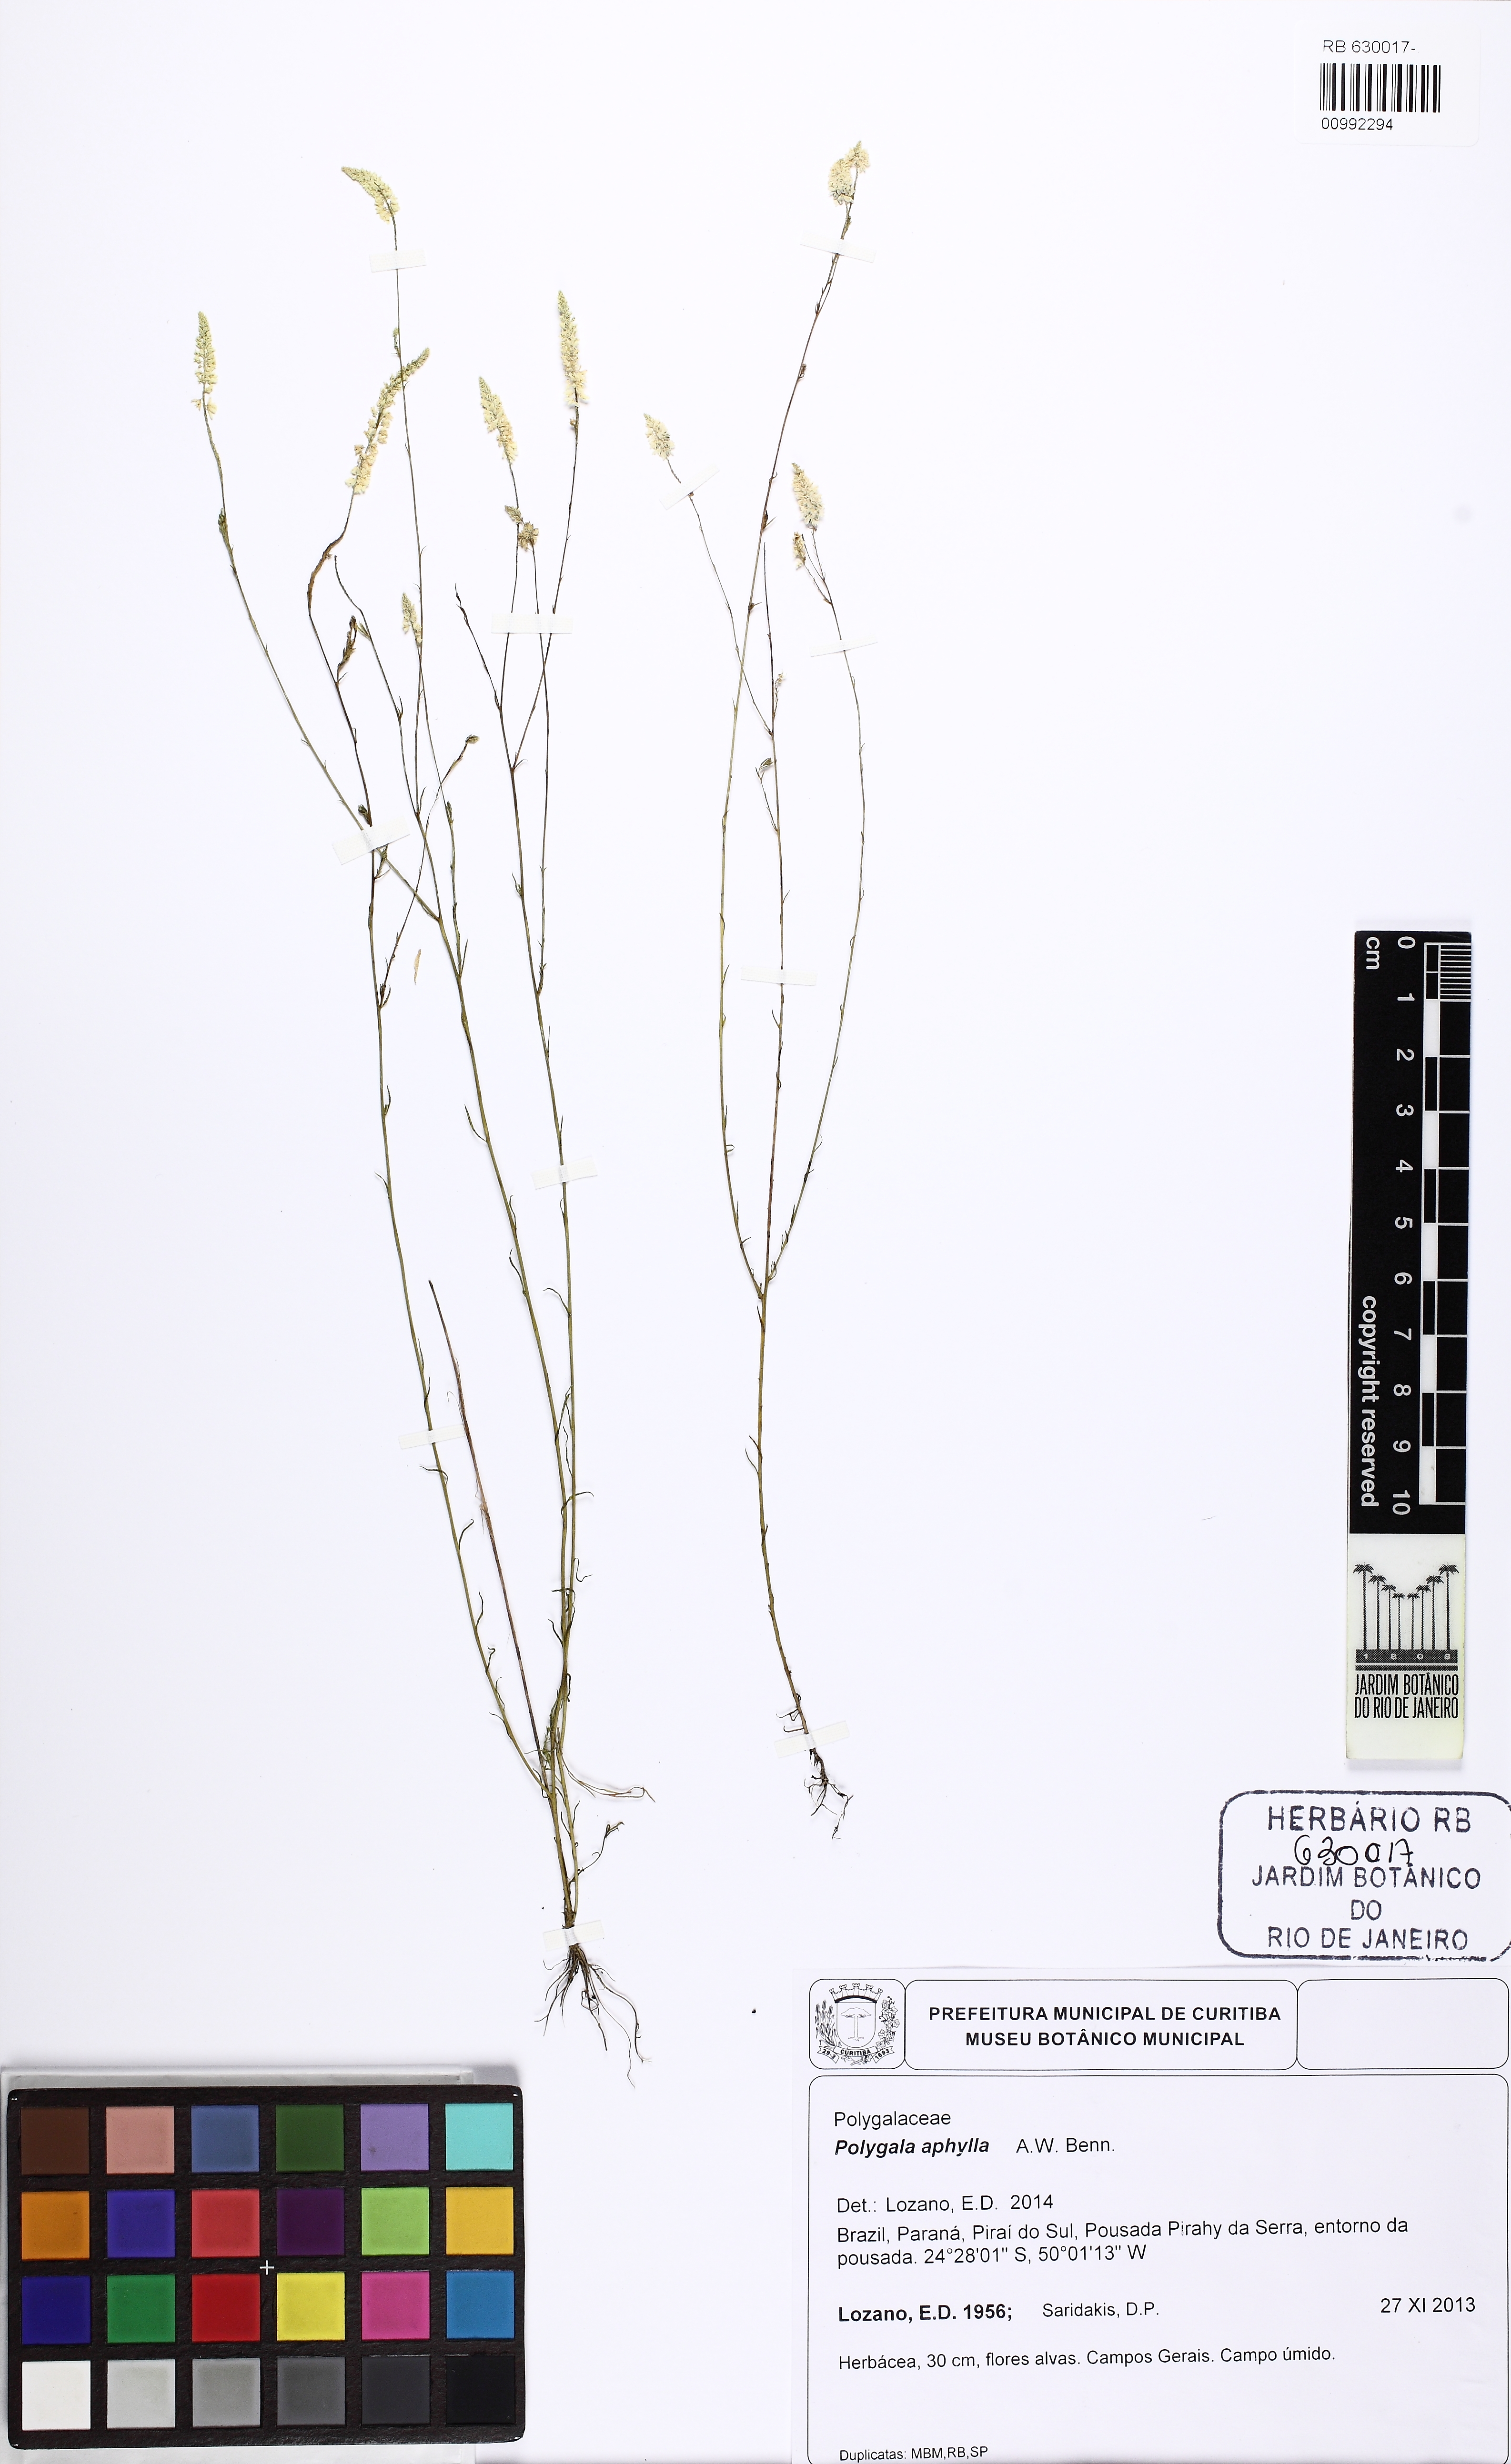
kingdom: Plantae
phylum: Tracheophyta
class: Magnoliopsida
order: Fabales
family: Polygalaceae
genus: Polygala
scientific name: Polygala tenuis
